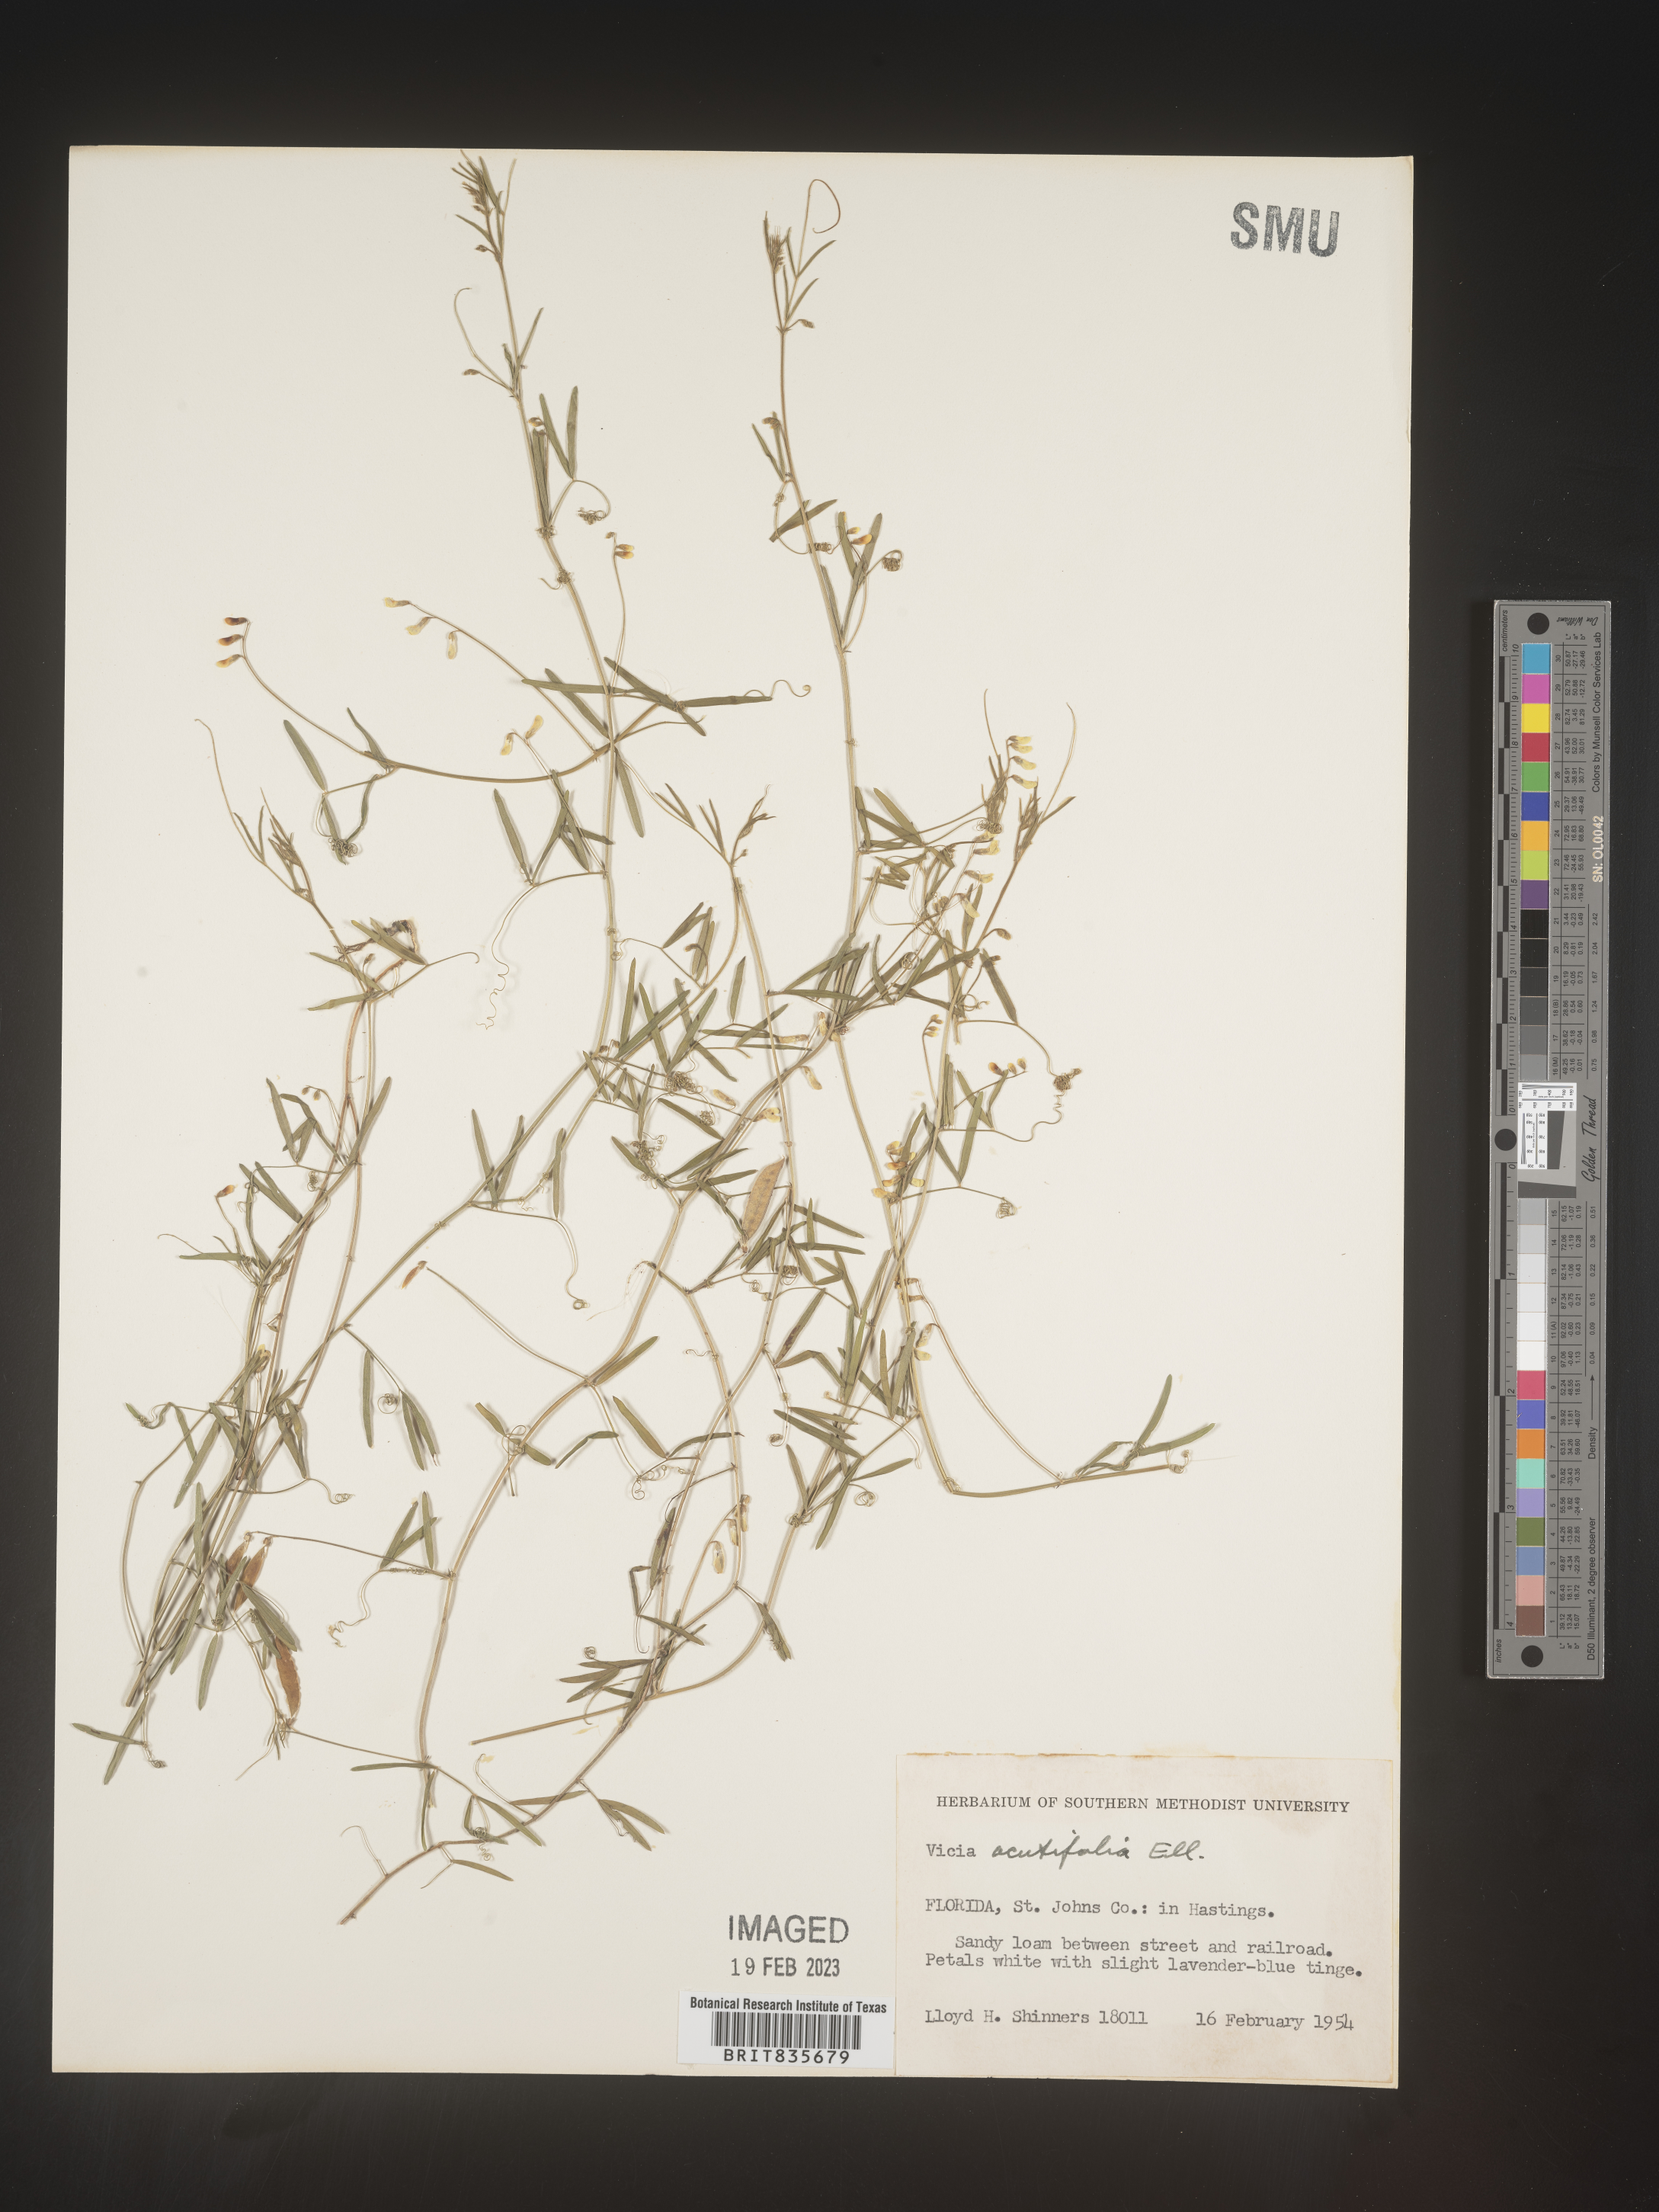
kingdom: Plantae
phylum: Tracheophyta
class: Magnoliopsida
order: Fabales
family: Fabaceae
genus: Vicia
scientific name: Vicia acutifolia
